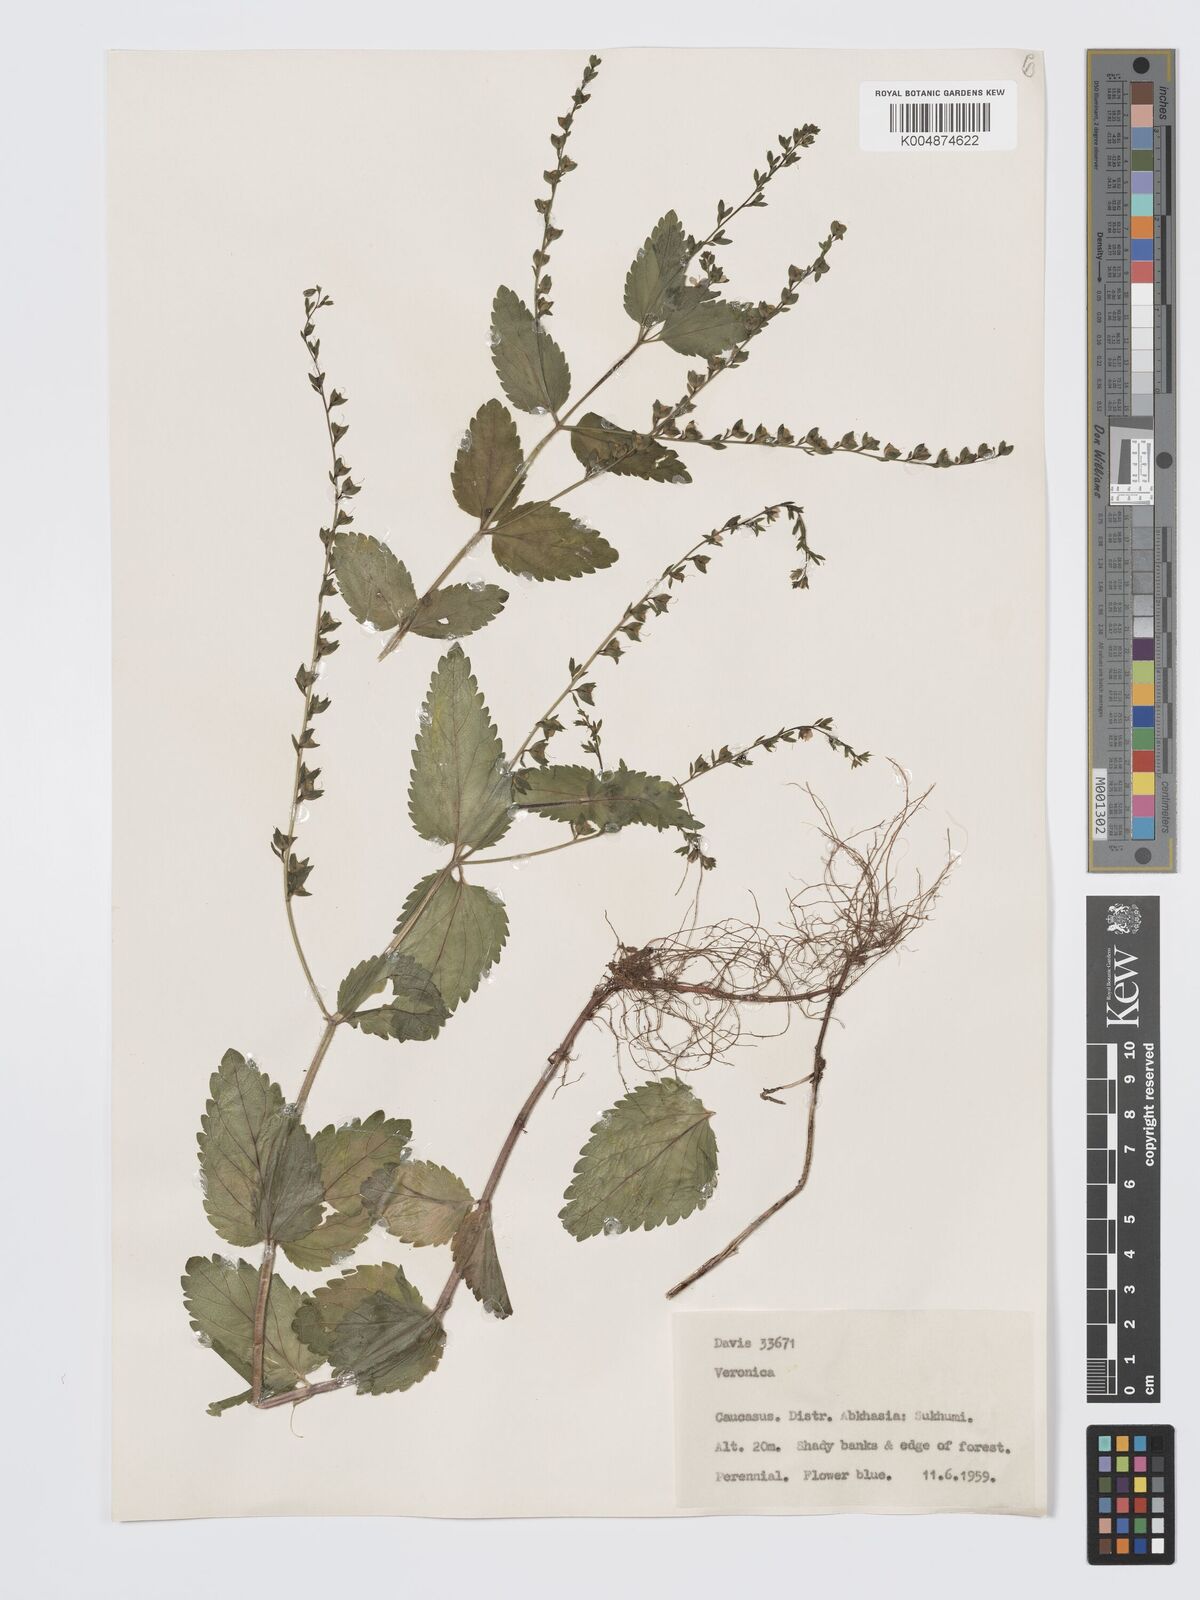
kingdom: Plantae
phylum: Tracheophyta
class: Magnoliopsida
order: Lamiales
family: Plantaginaceae
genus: Veronica
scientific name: Veronica
